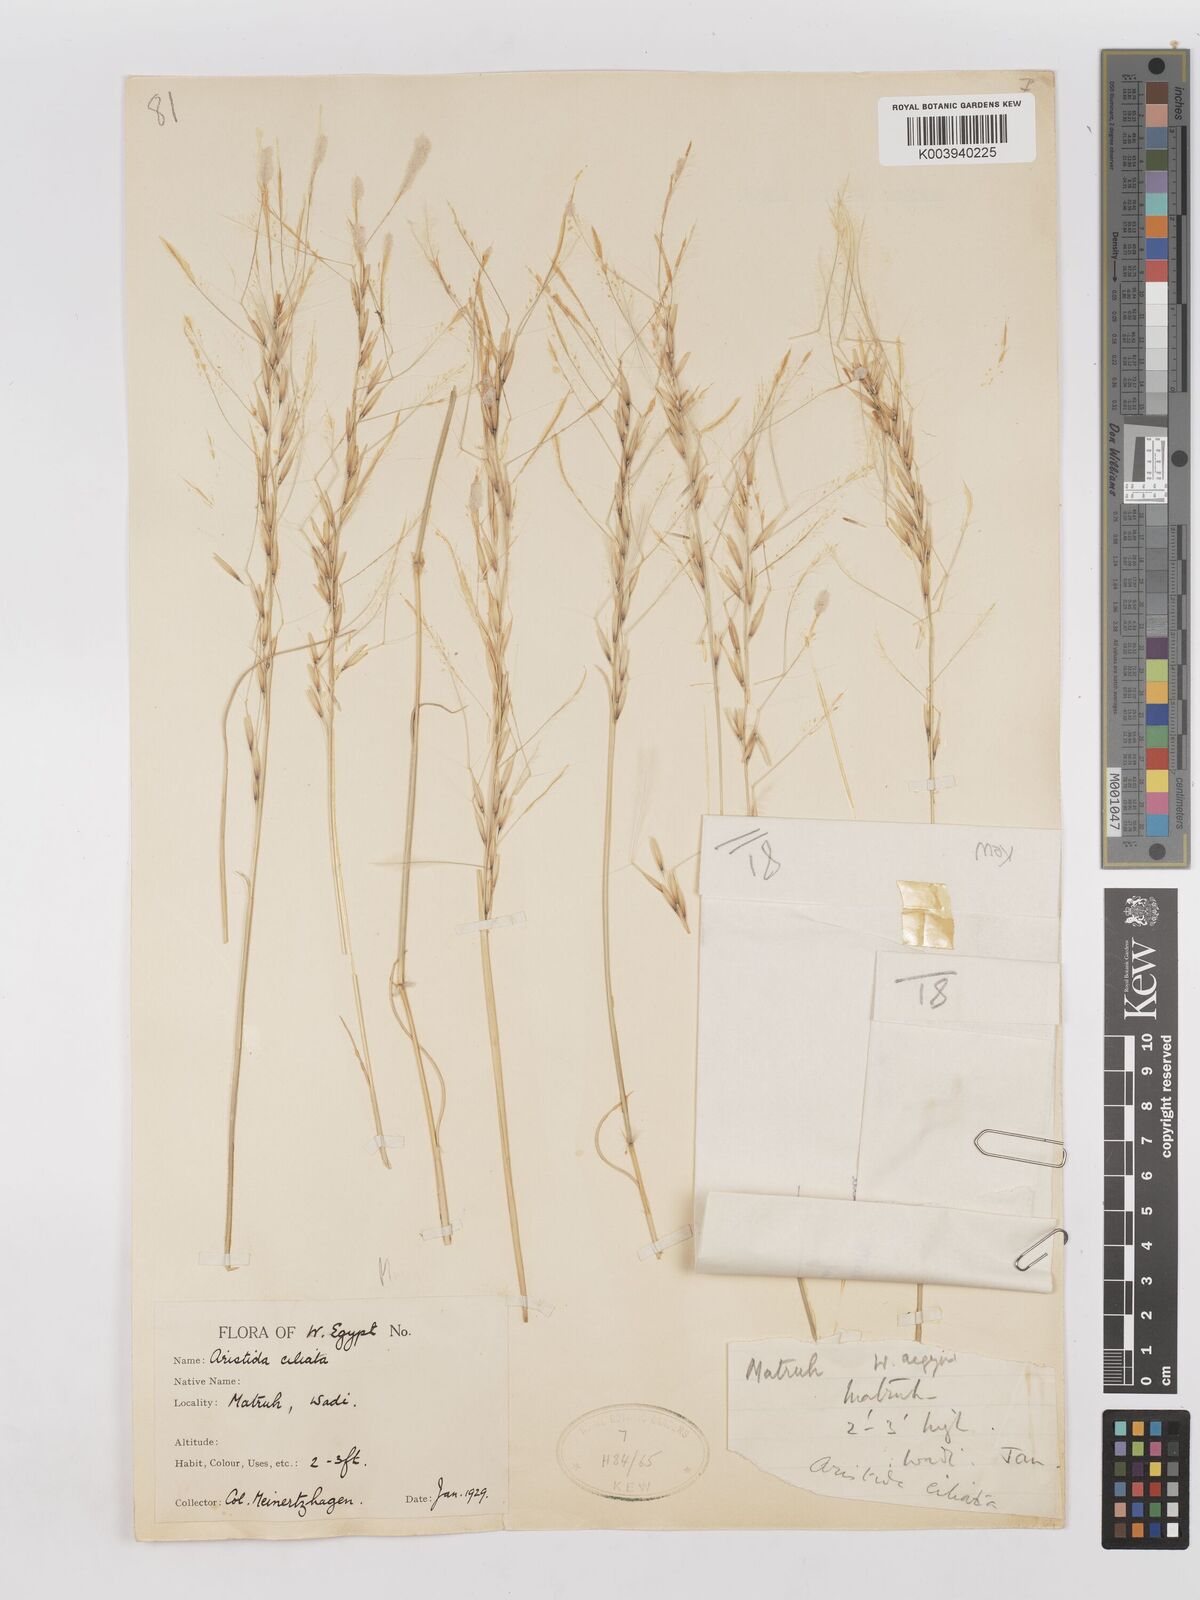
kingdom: Plantae
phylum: Tracheophyta
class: Liliopsida
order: Poales
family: Poaceae
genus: Stipagrostis
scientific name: Stipagrostis ciliata
